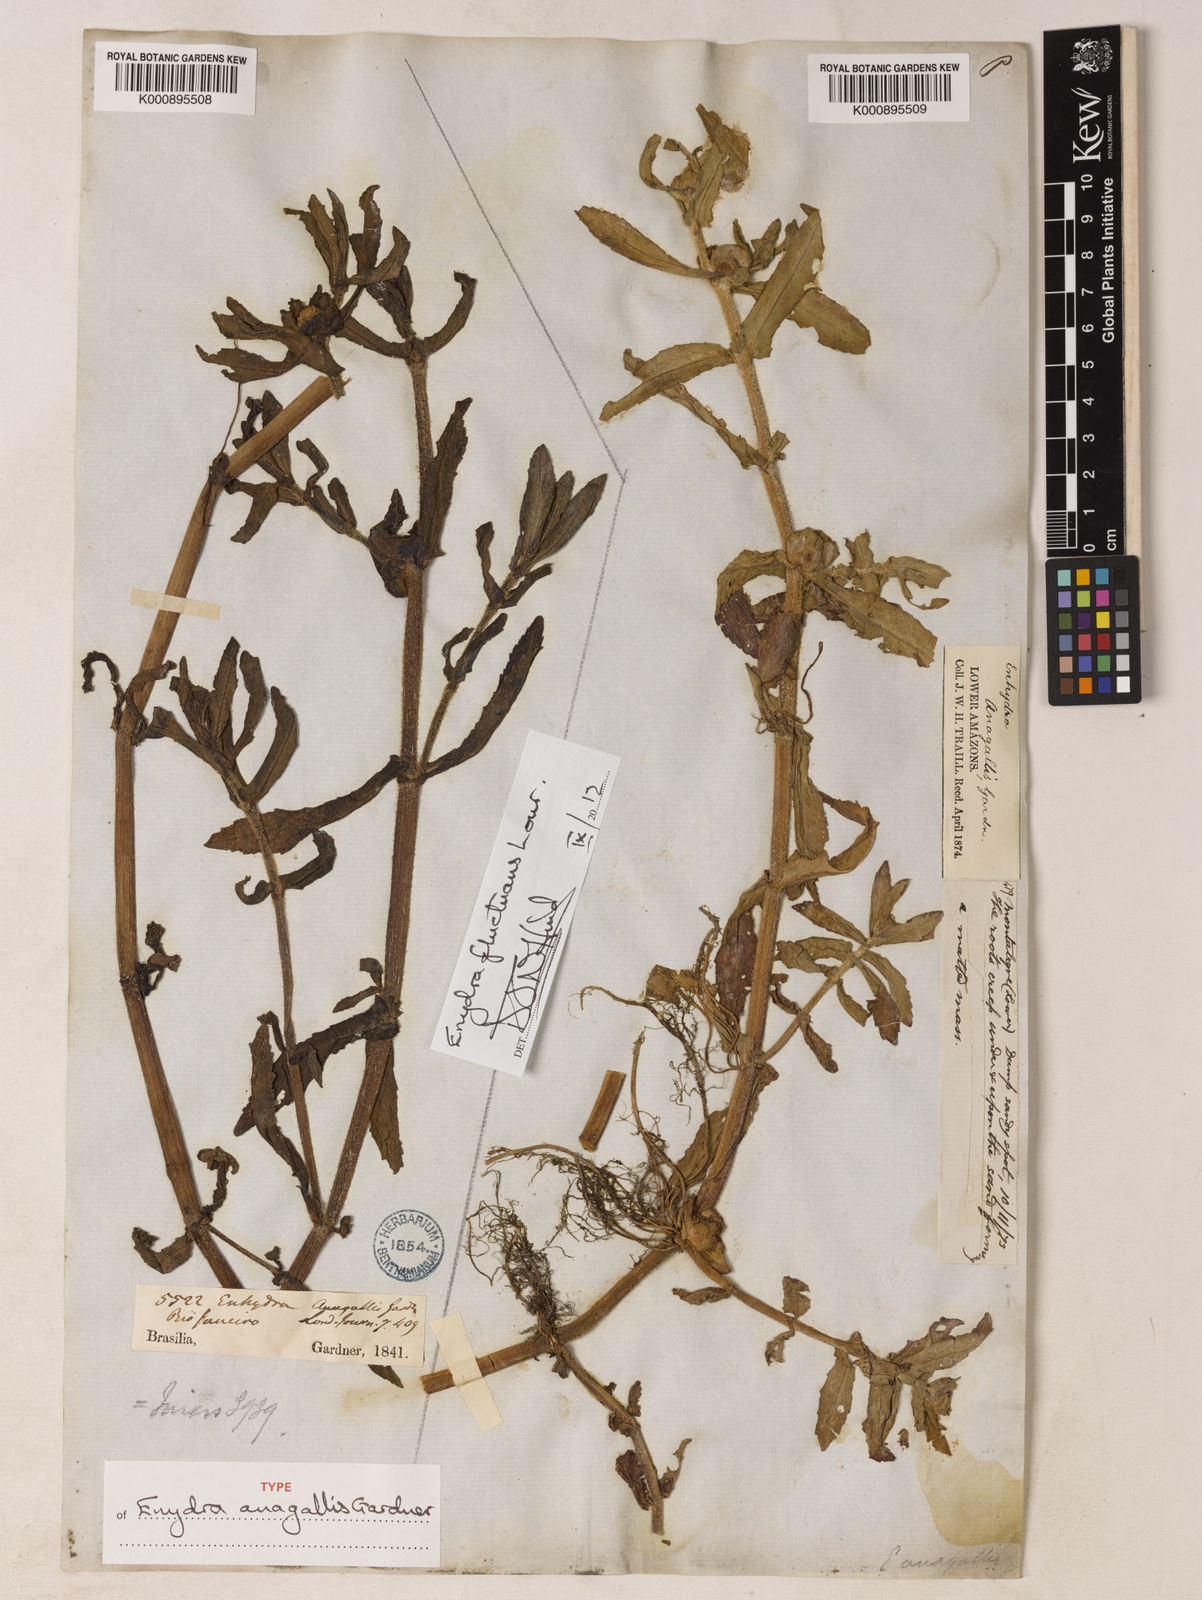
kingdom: Plantae
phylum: Tracheophyta
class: Magnoliopsida
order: Asterales
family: Asteraceae
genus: Enydra
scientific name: Enydra fluctuans
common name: Buffalo spinach
